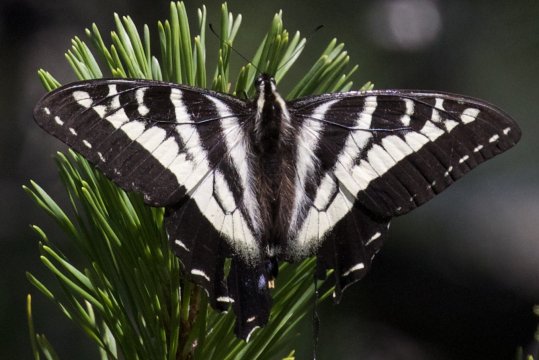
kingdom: Animalia
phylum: Arthropoda
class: Insecta
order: Lepidoptera
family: Papilionidae
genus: Pterourus
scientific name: Pterourus eurymedon
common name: Pale Swallowtail
